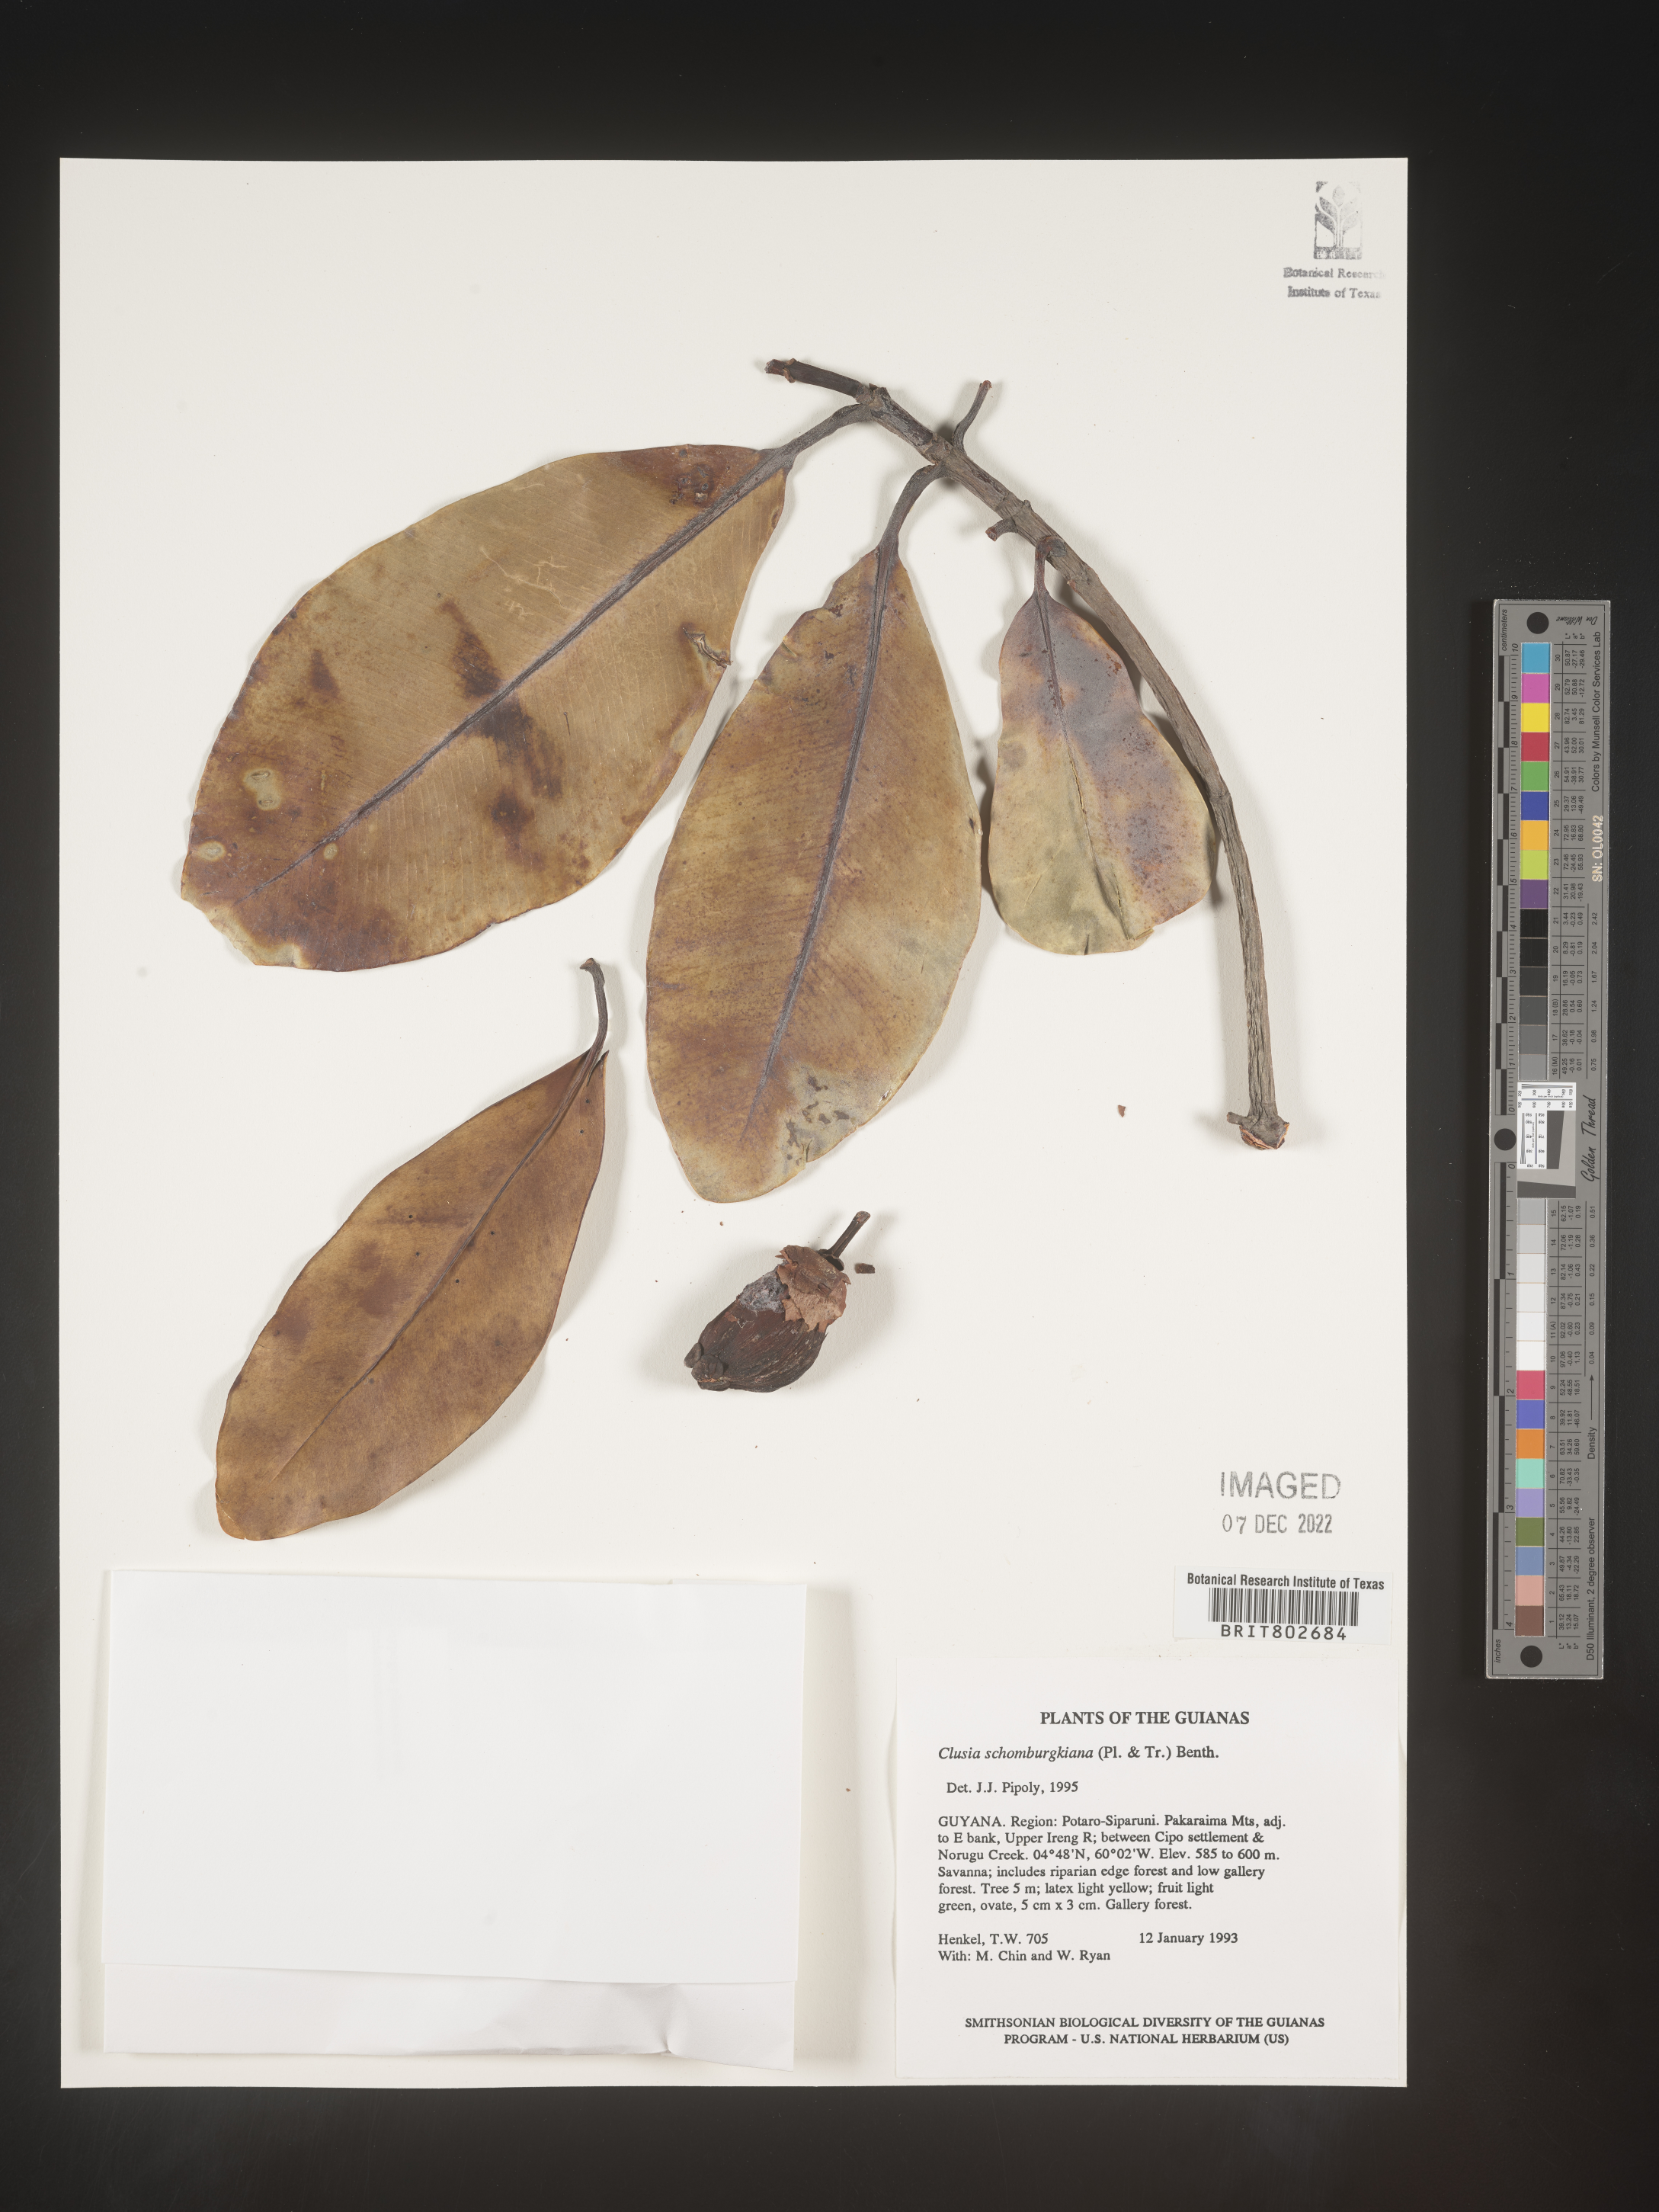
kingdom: Plantae
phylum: Tracheophyta
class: Magnoliopsida
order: Malpighiales
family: Clusiaceae
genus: Clusia
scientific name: Clusia schomburgkiana
